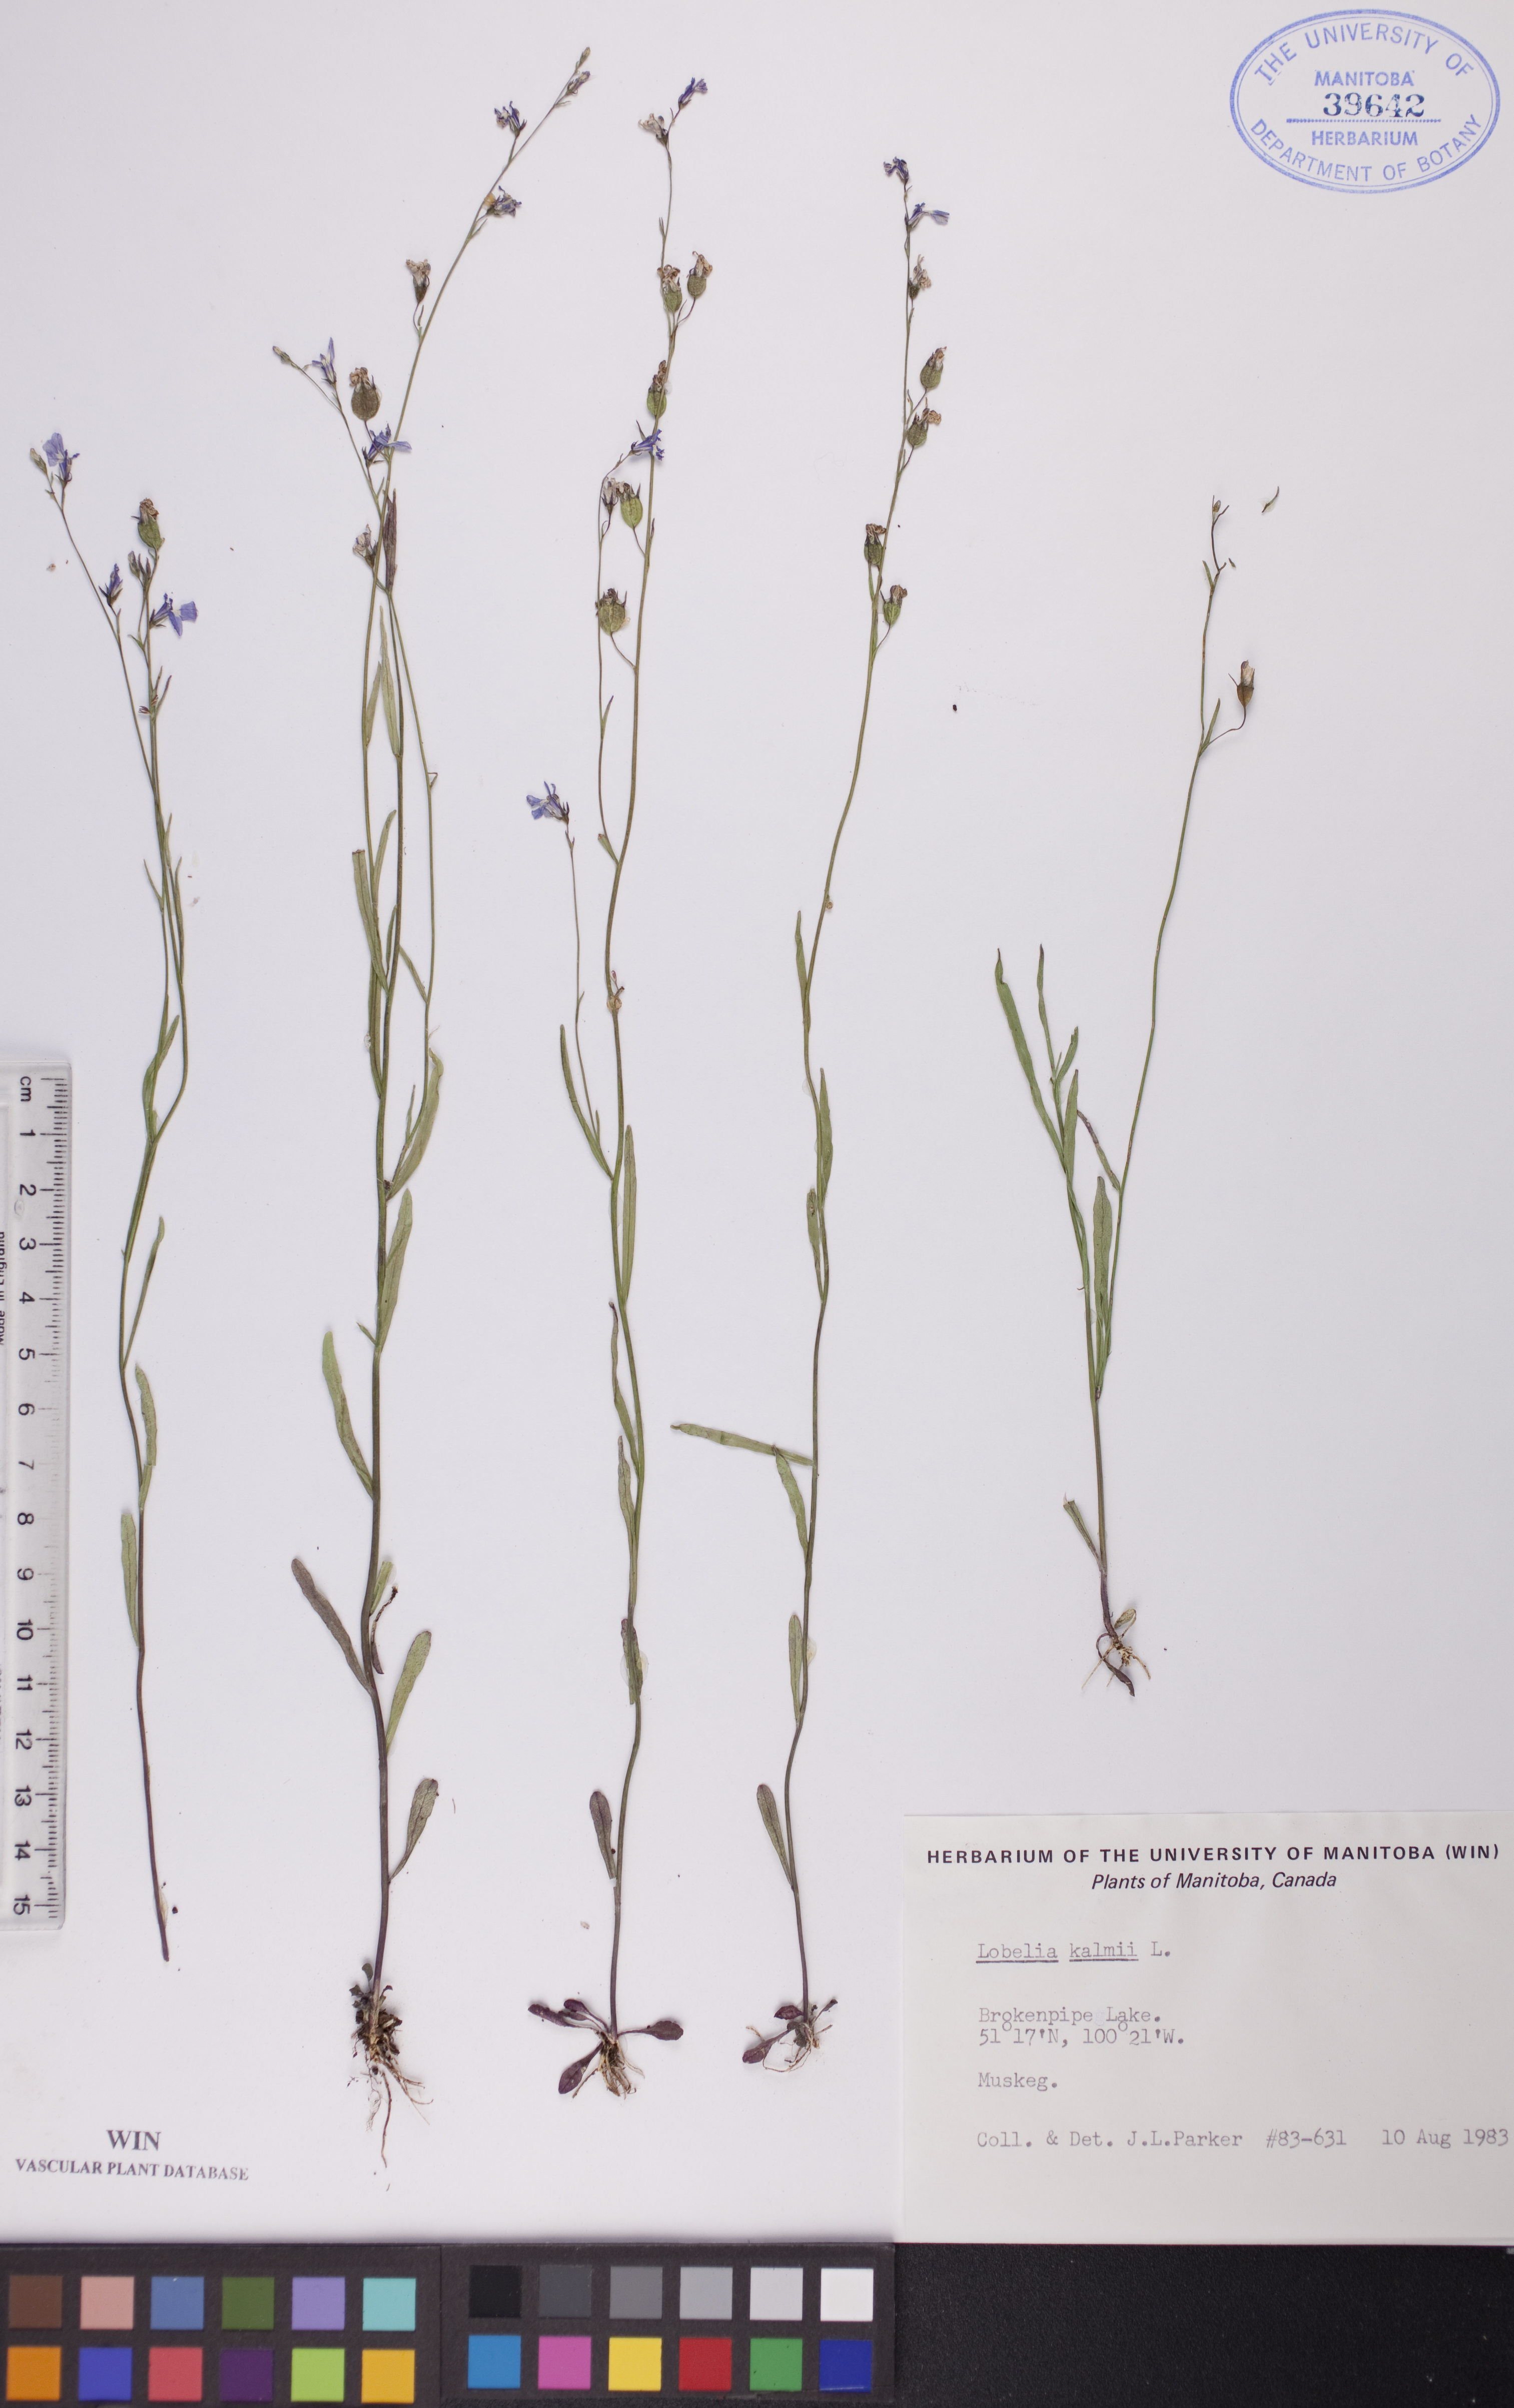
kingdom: Plantae
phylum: Tracheophyta
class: Magnoliopsida
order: Asterales
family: Campanulaceae
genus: Lobelia
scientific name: Lobelia kalmii
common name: Kalm's lobelia
